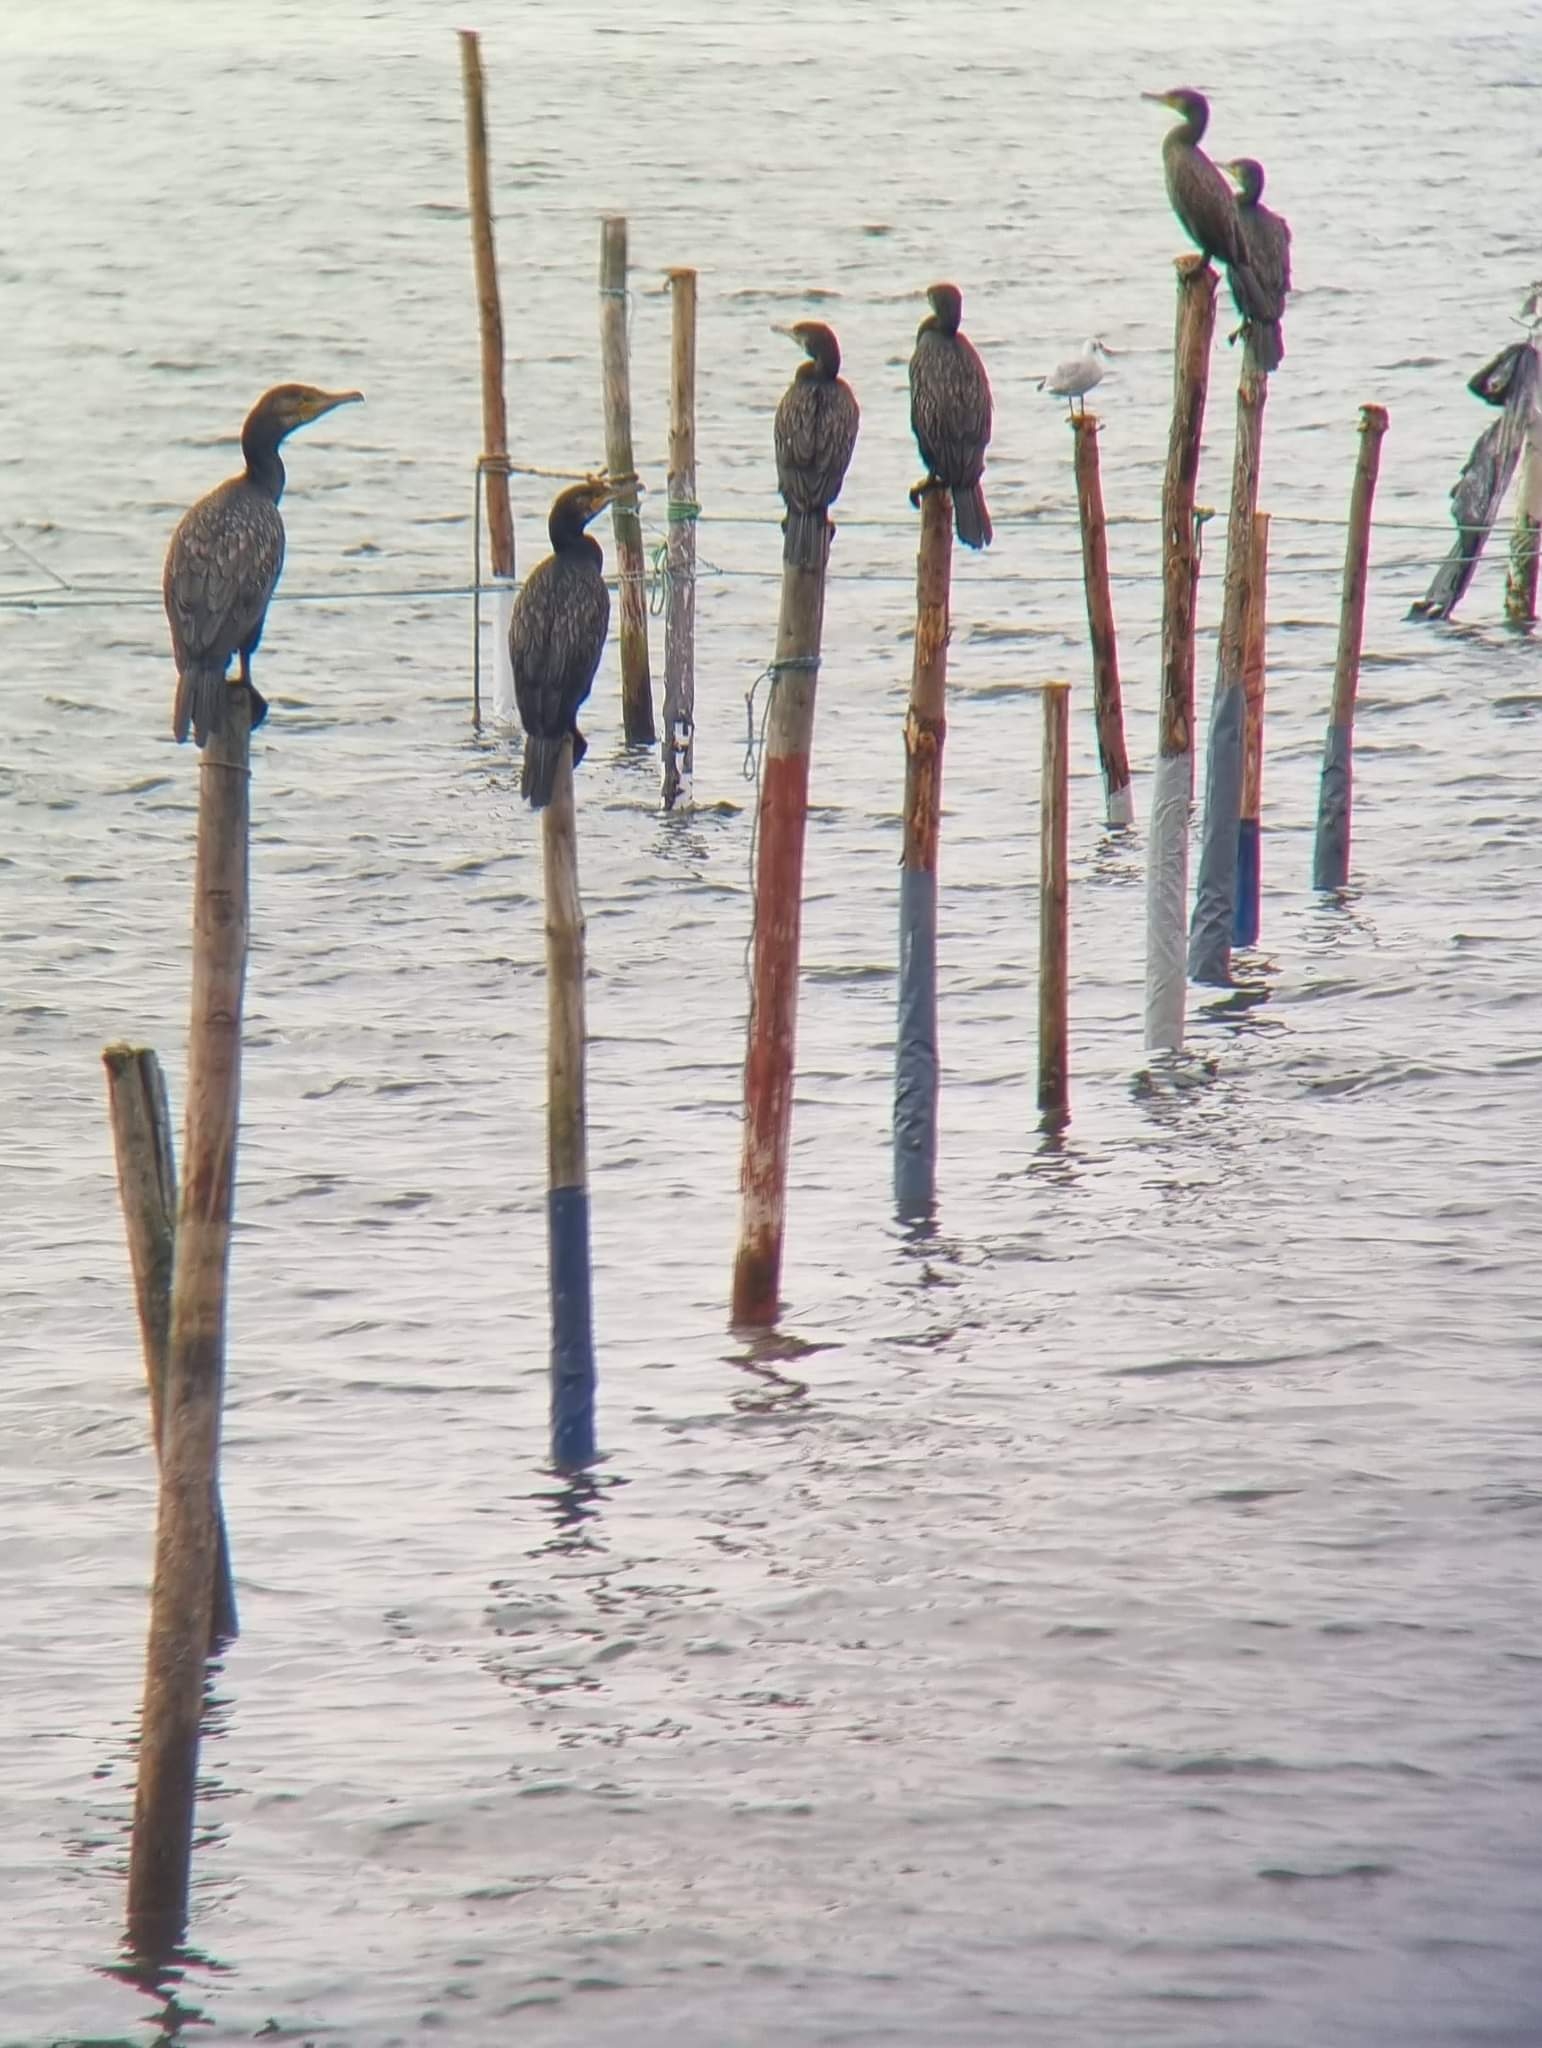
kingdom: Animalia
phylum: Chordata
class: Aves
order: Suliformes
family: Phalacrocoracidae
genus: Phalacrocorax
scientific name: Phalacrocorax carbo
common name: Skarv
